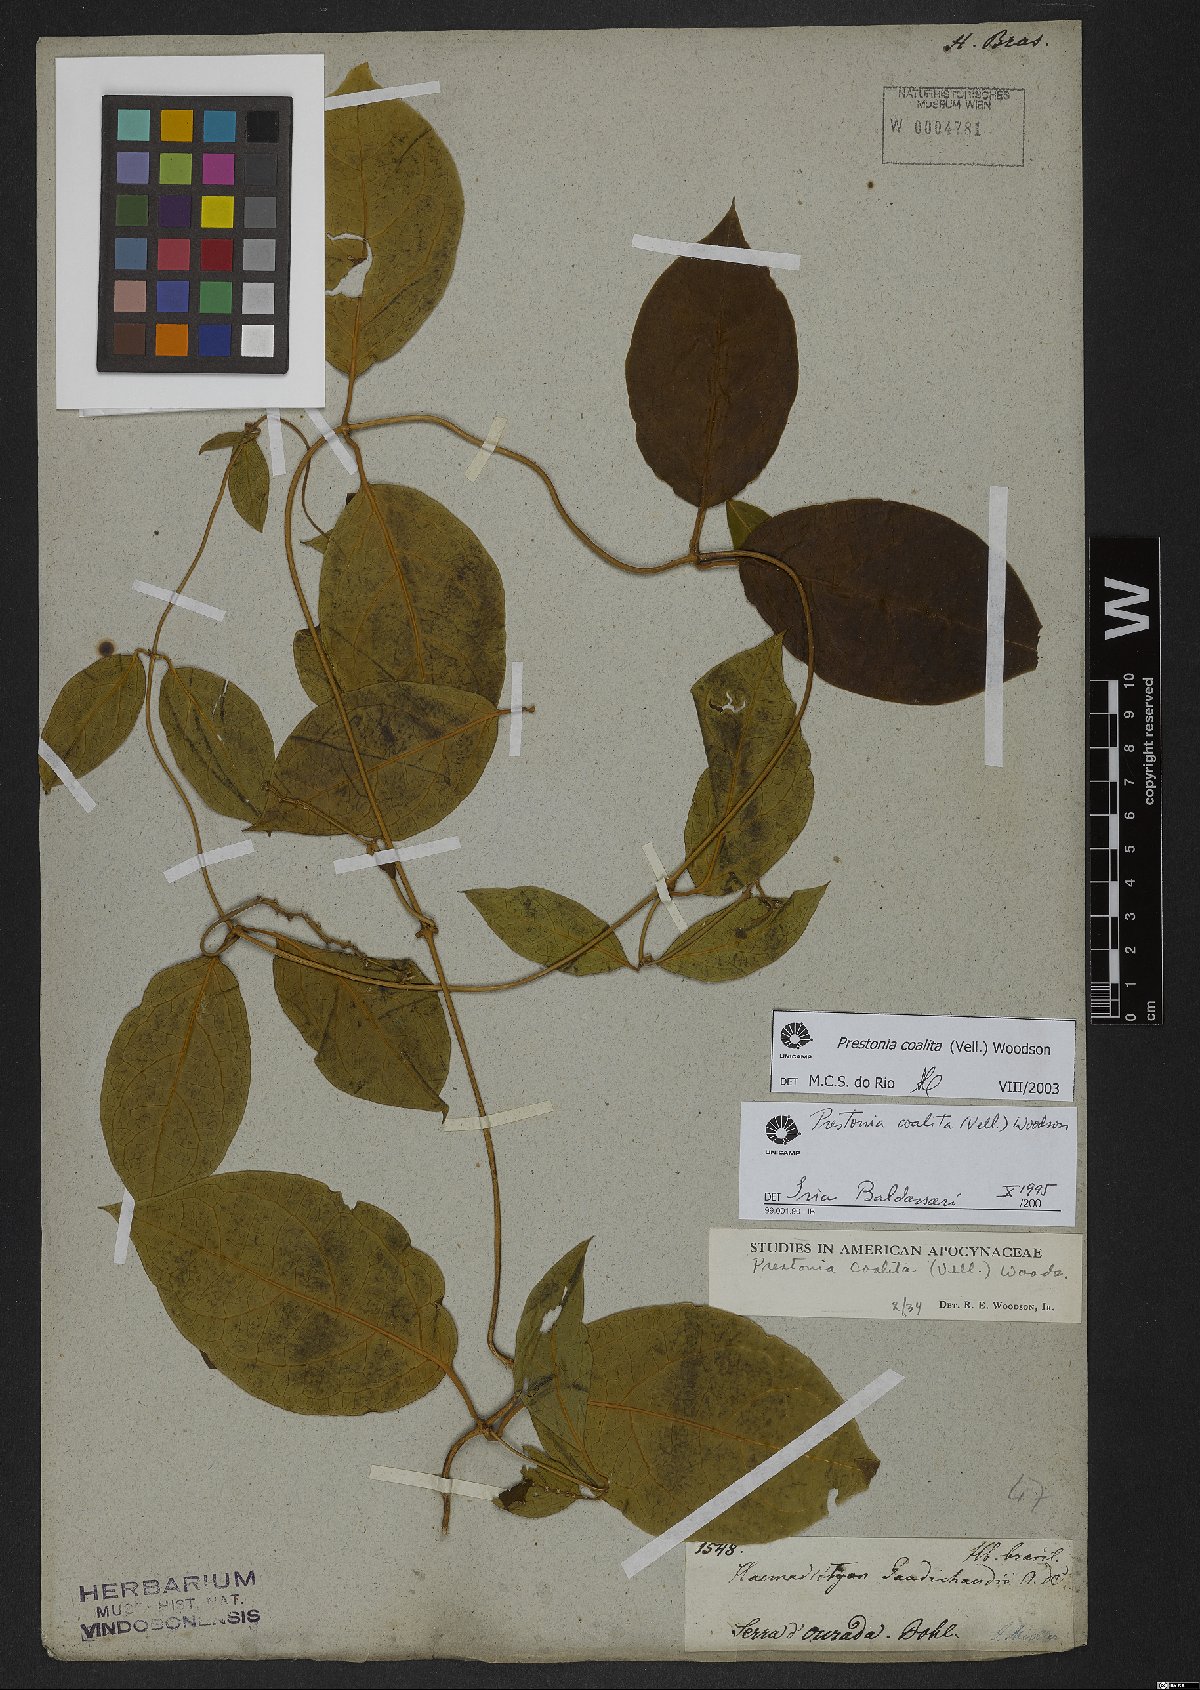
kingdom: Plantae
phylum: Tracheophyta
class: Magnoliopsida
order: Gentianales
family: Apocynaceae
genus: Prestonia
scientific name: Prestonia coalita
